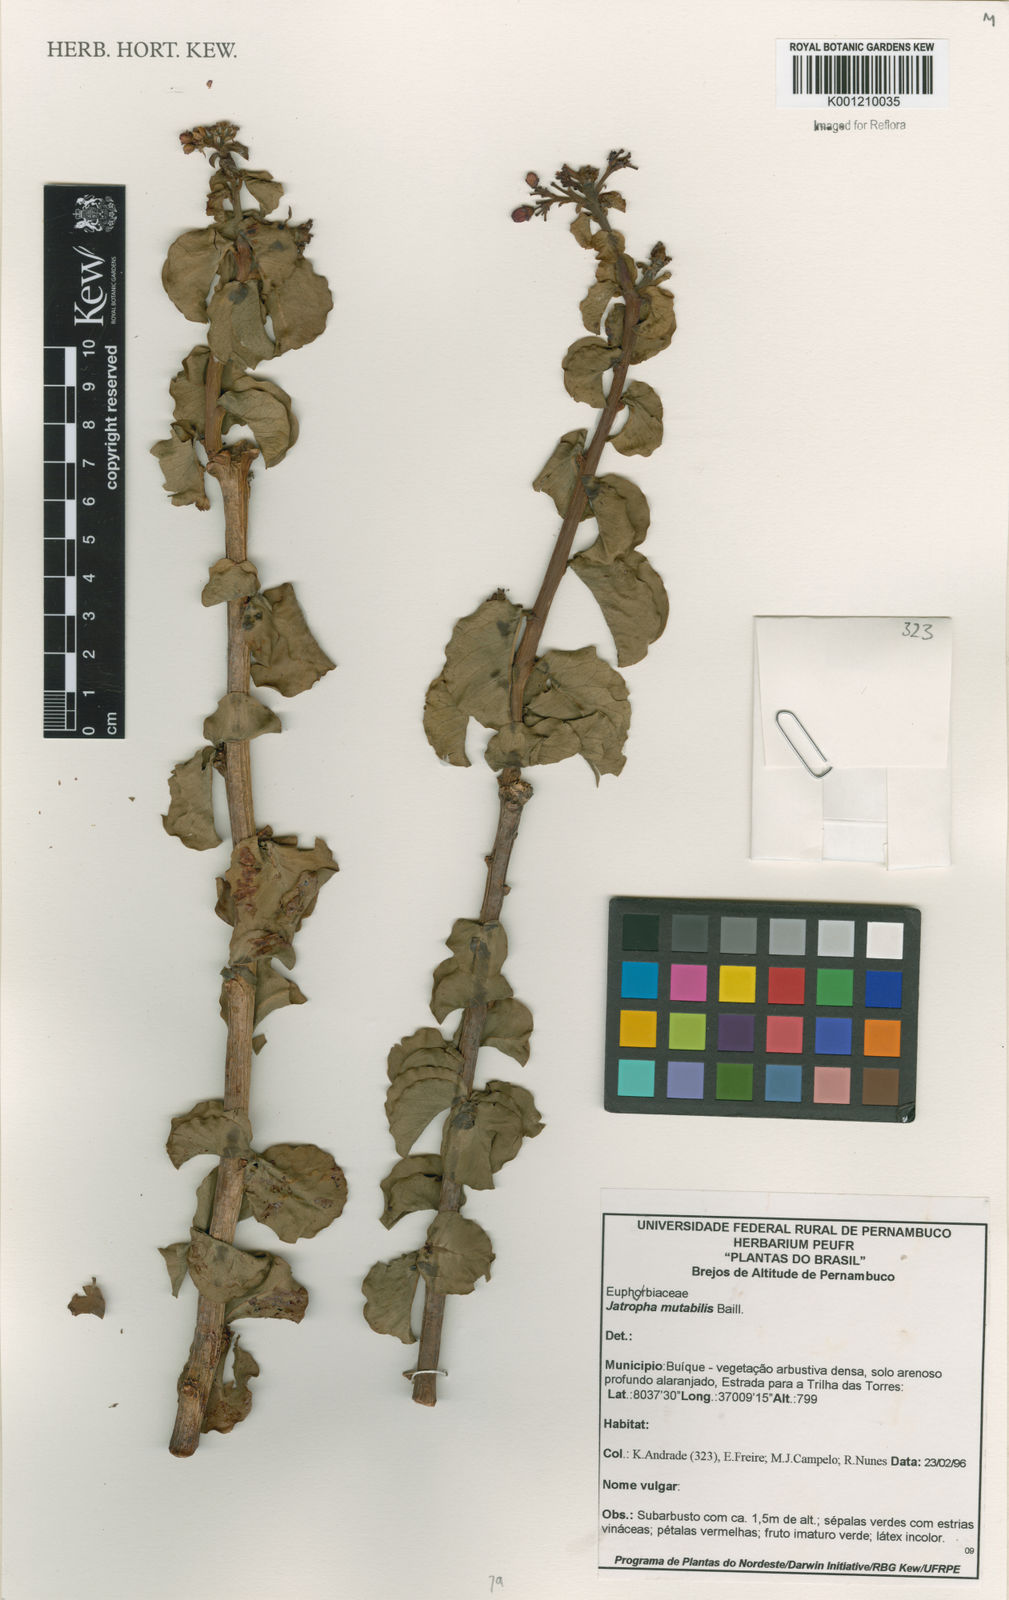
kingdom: Plantae
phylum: Tracheophyta
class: Magnoliopsida
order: Malpighiales
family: Euphorbiaceae
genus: Jatropha
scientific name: Jatropha mutabilis
